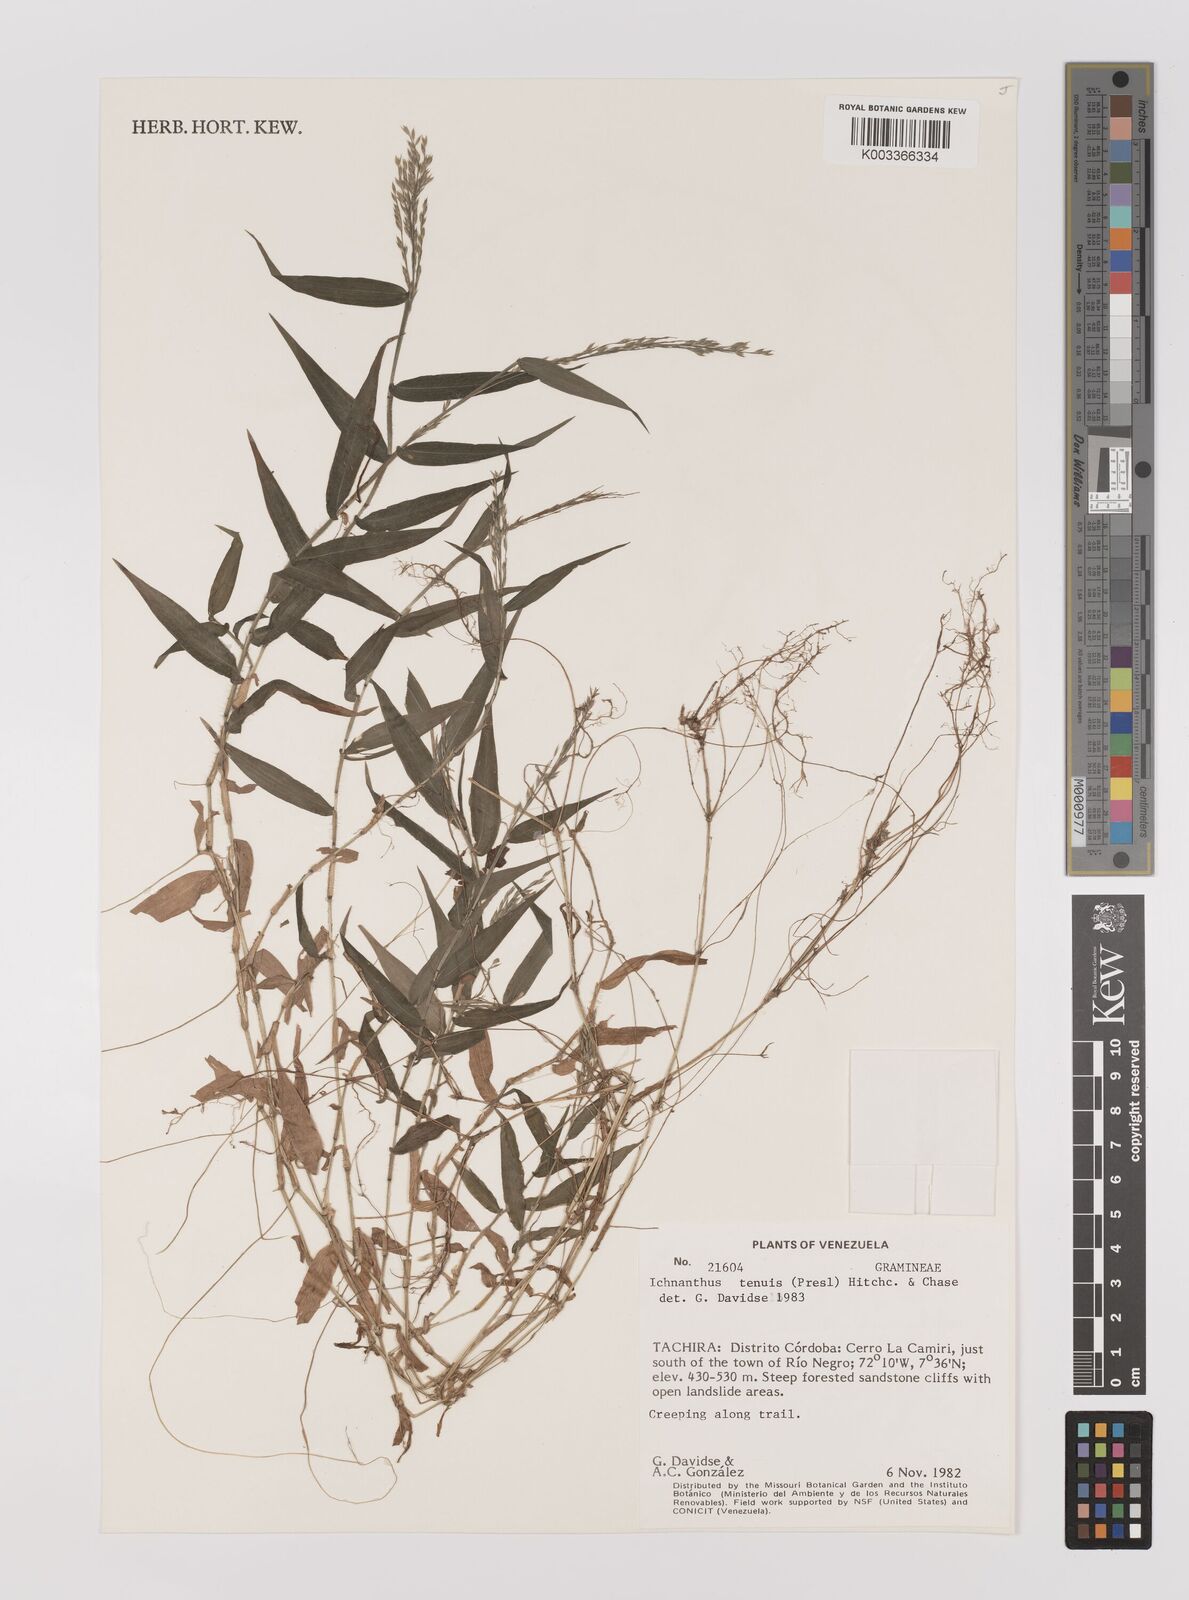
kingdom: Plantae
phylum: Tracheophyta
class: Liliopsida
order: Poales
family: Poaceae
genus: Ichnanthus
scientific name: Ichnanthus tenuis
